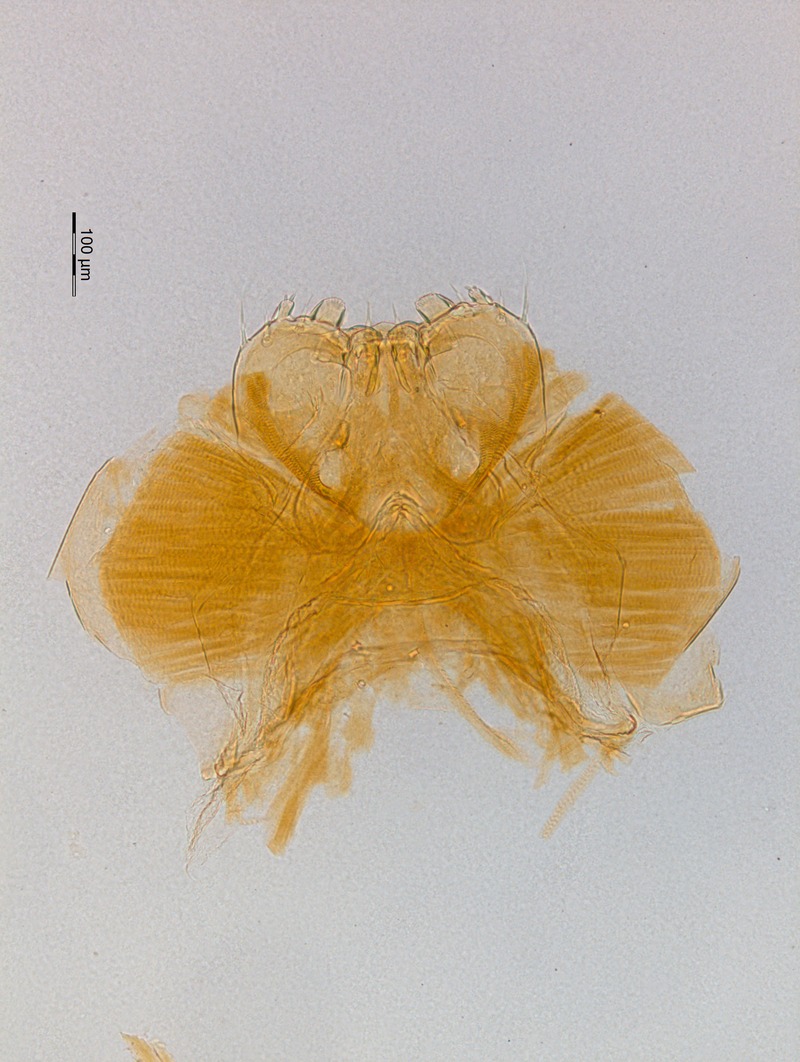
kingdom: Animalia
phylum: Arthropoda
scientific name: Arthropoda
